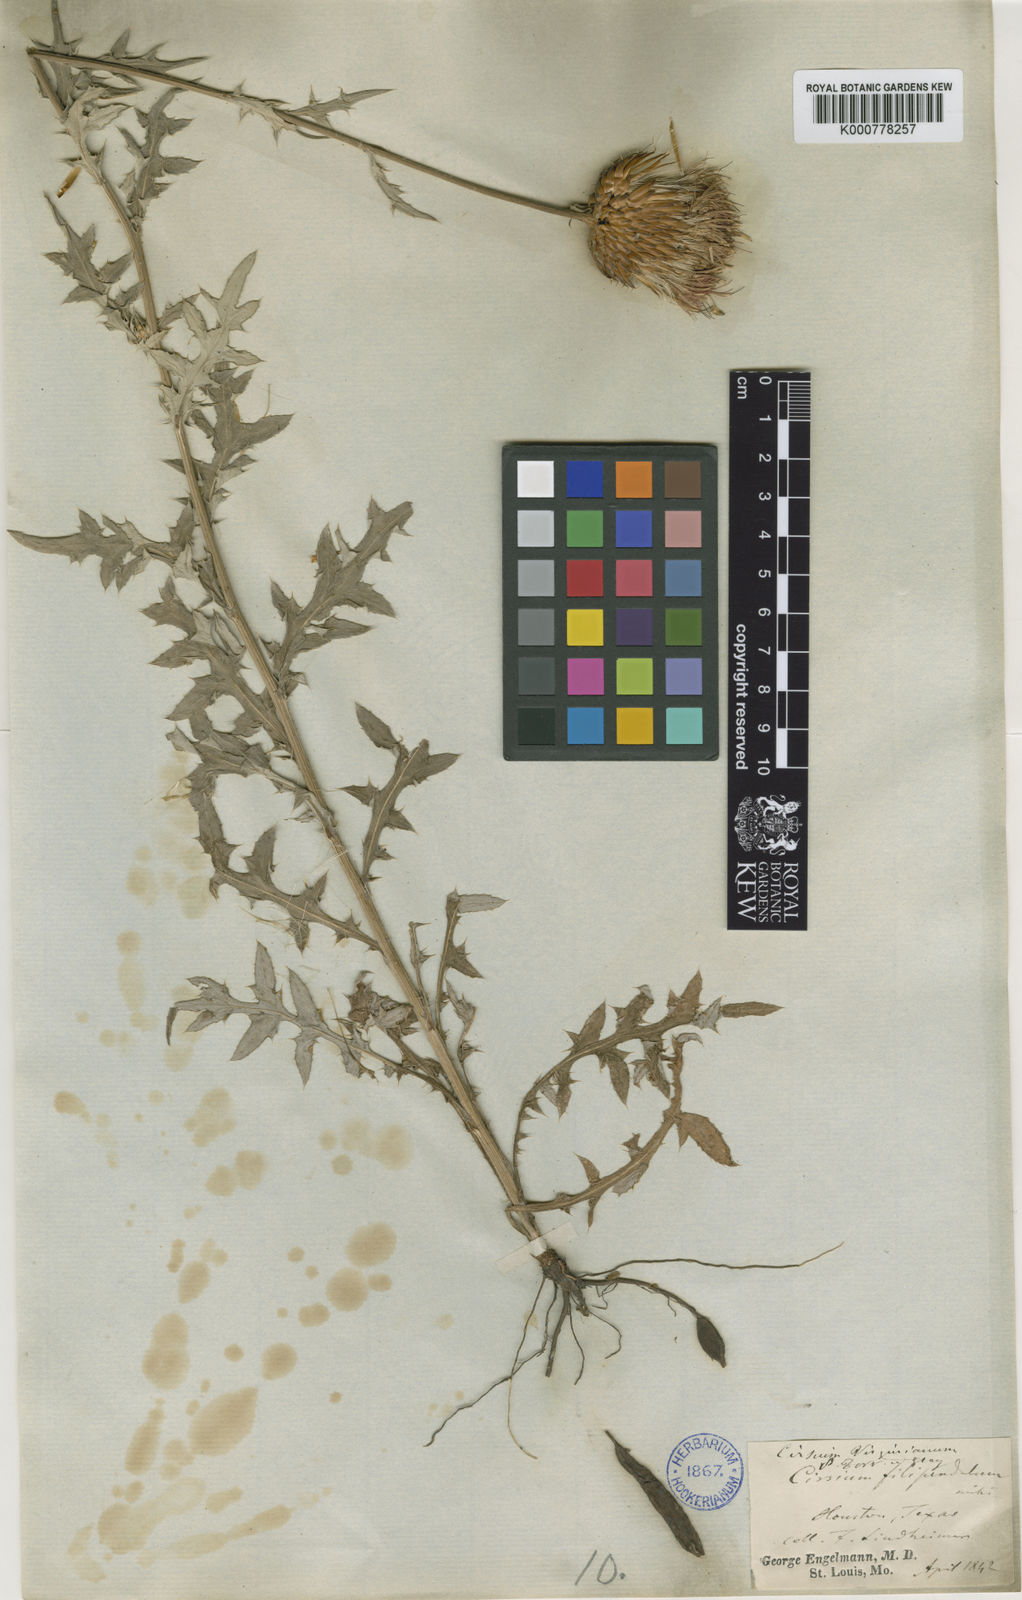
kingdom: Plantae
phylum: Tracheophyta
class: Magnoliopsida
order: Asterales
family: Asteraceae
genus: Cirsium
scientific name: Cirsium altissimum
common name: Roadside thistle
